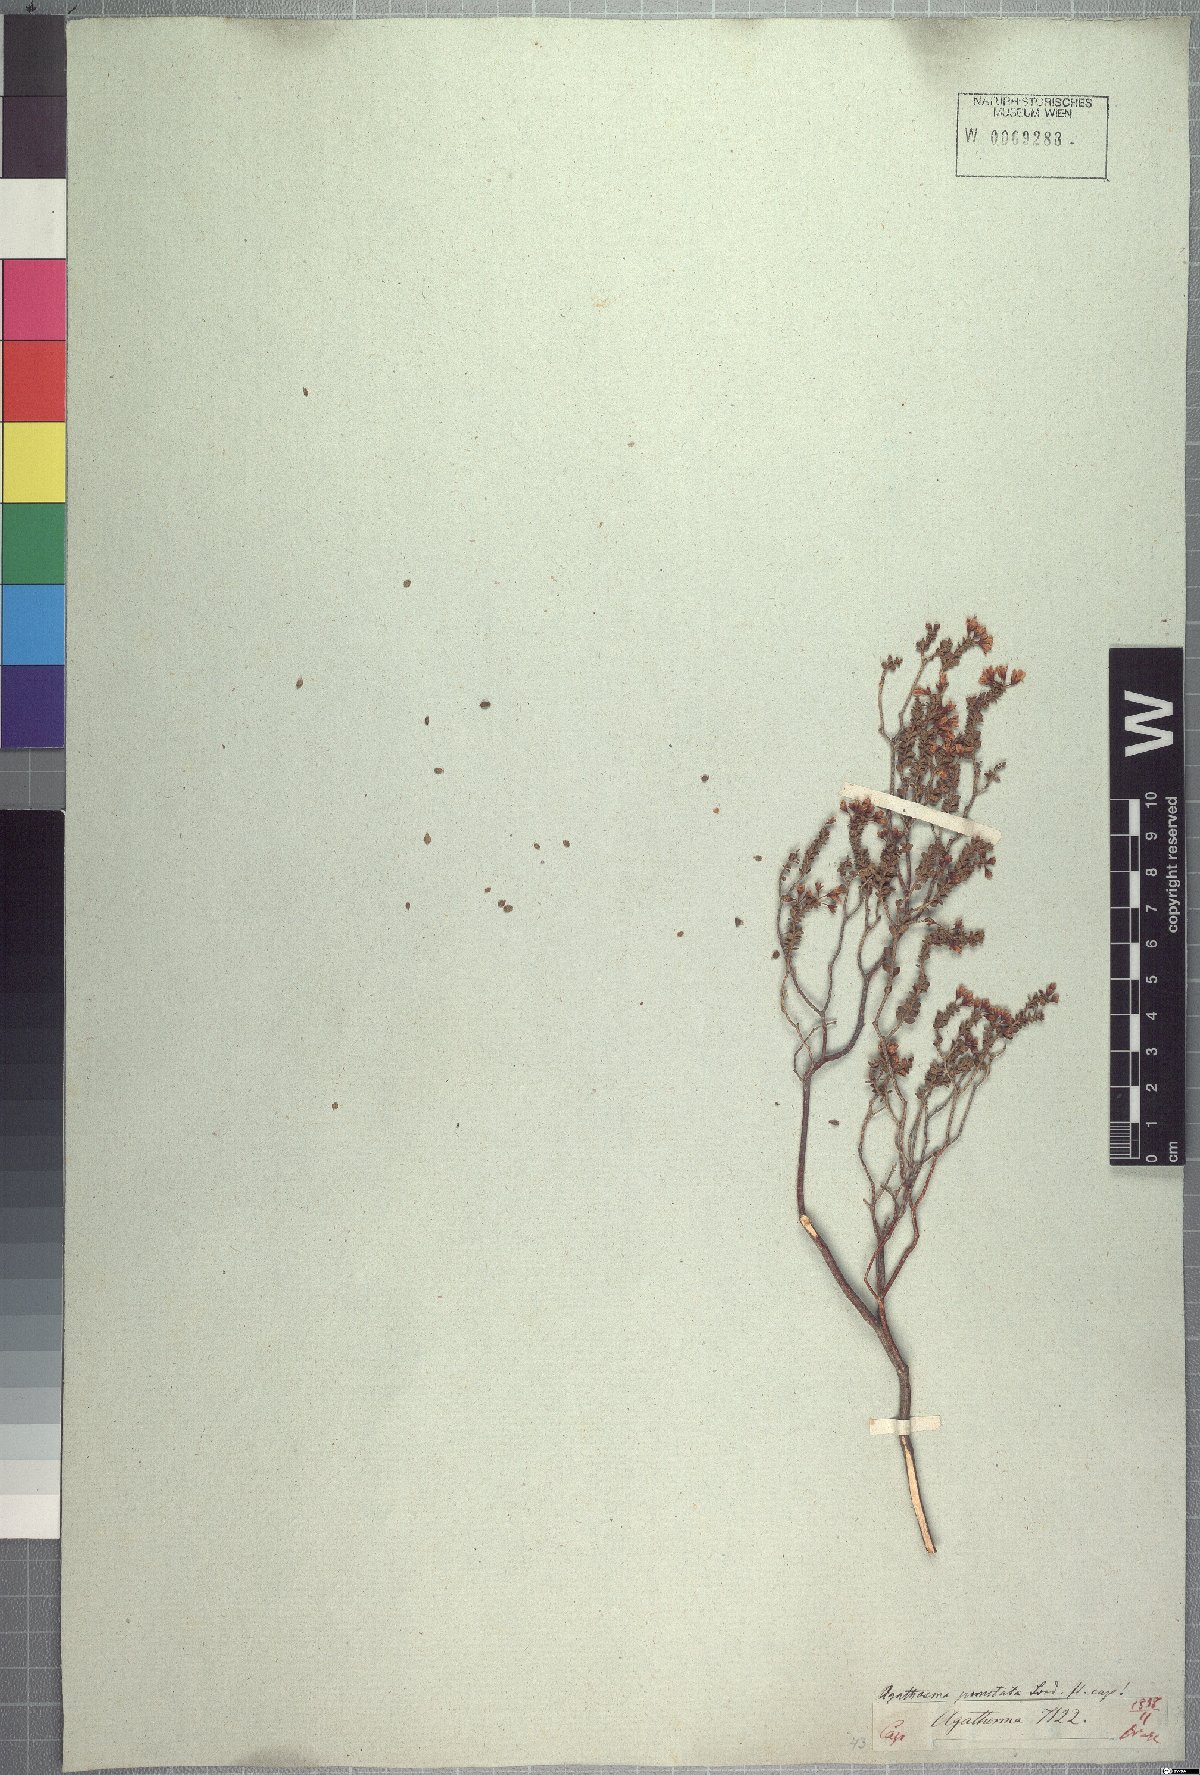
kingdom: Plantae
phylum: Tracheophyta
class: Magnoliopsida
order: Sapindales
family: Rutaceae
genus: Agathosma
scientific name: Agathosma ovalifolia
